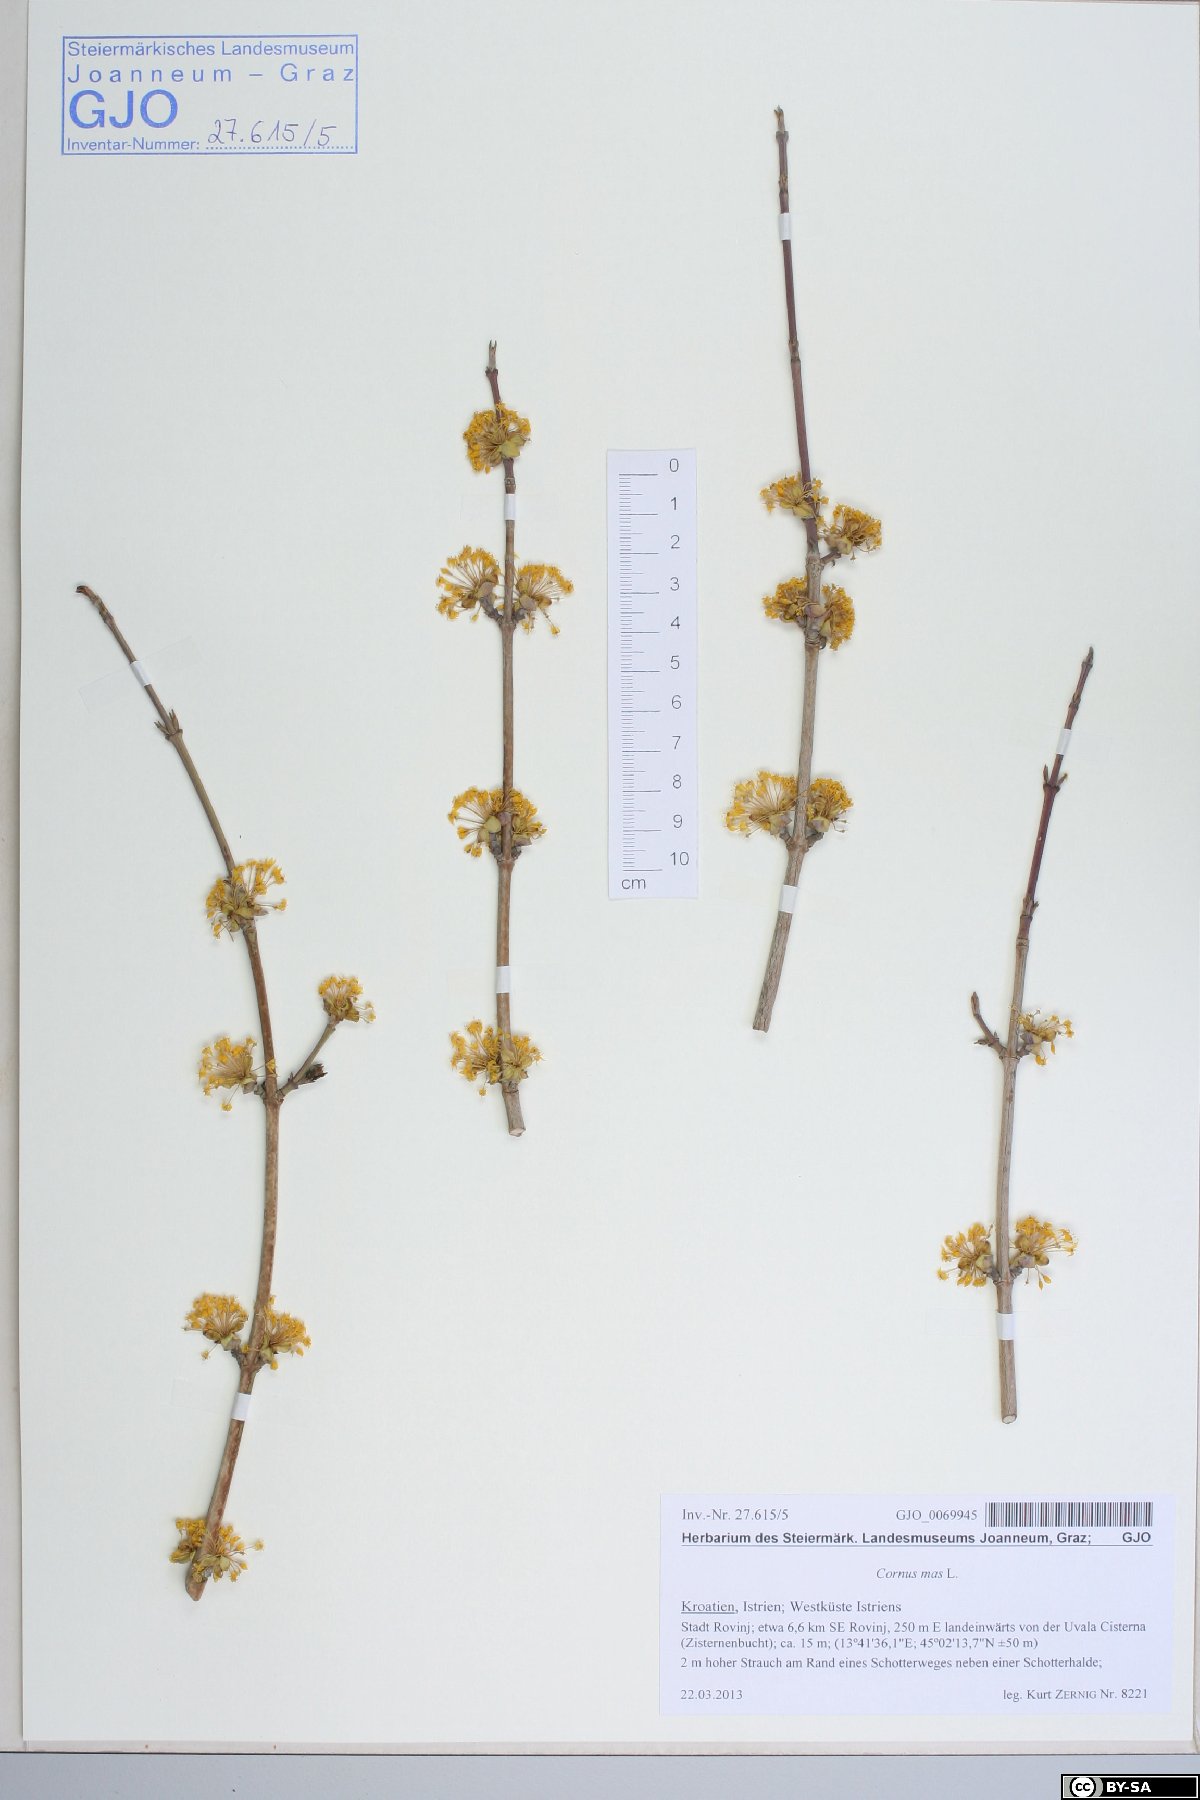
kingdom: Plantae
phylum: Tracheophyta
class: Magnoliopsida
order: Cornales
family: Cornaceae
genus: Cornus
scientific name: Cornus mas
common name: Cornelian-cherry
